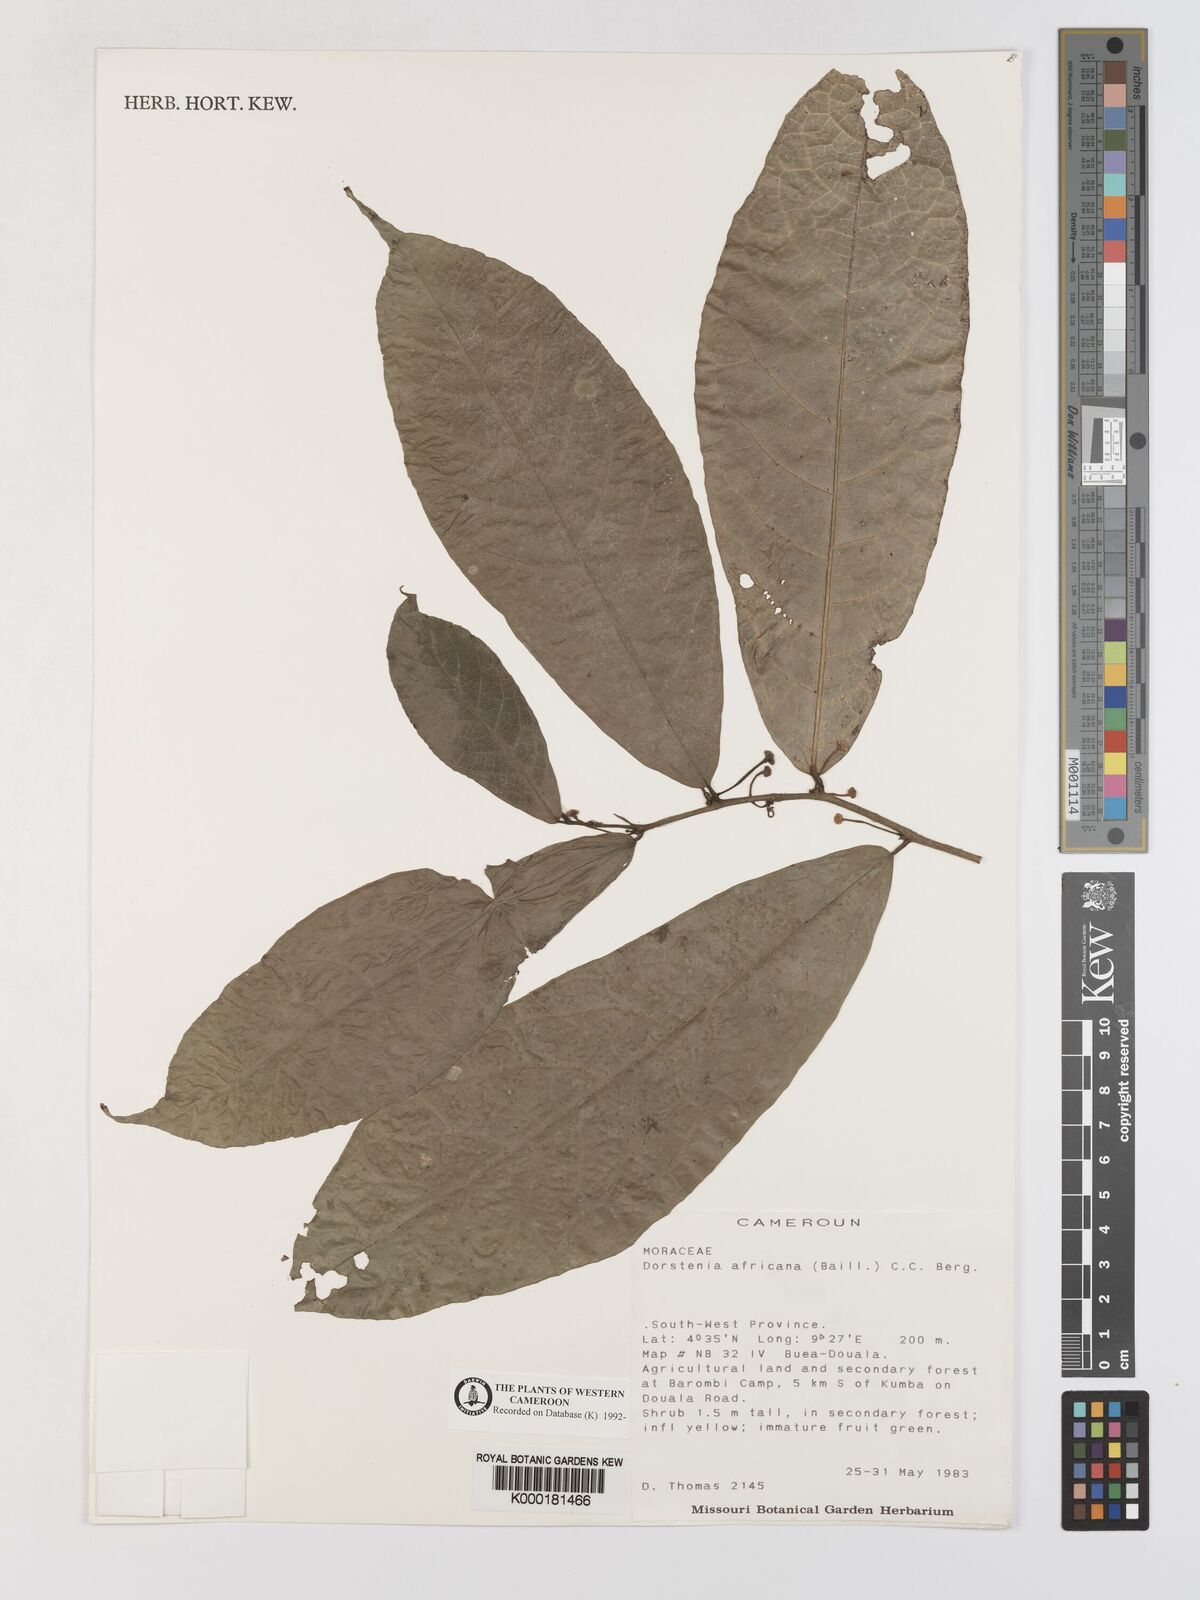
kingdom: Plantae
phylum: Tracheophyta
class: Magnoliopsida
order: Rosales
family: Moraceae
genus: Dorstenia
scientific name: Dorstenia africana
